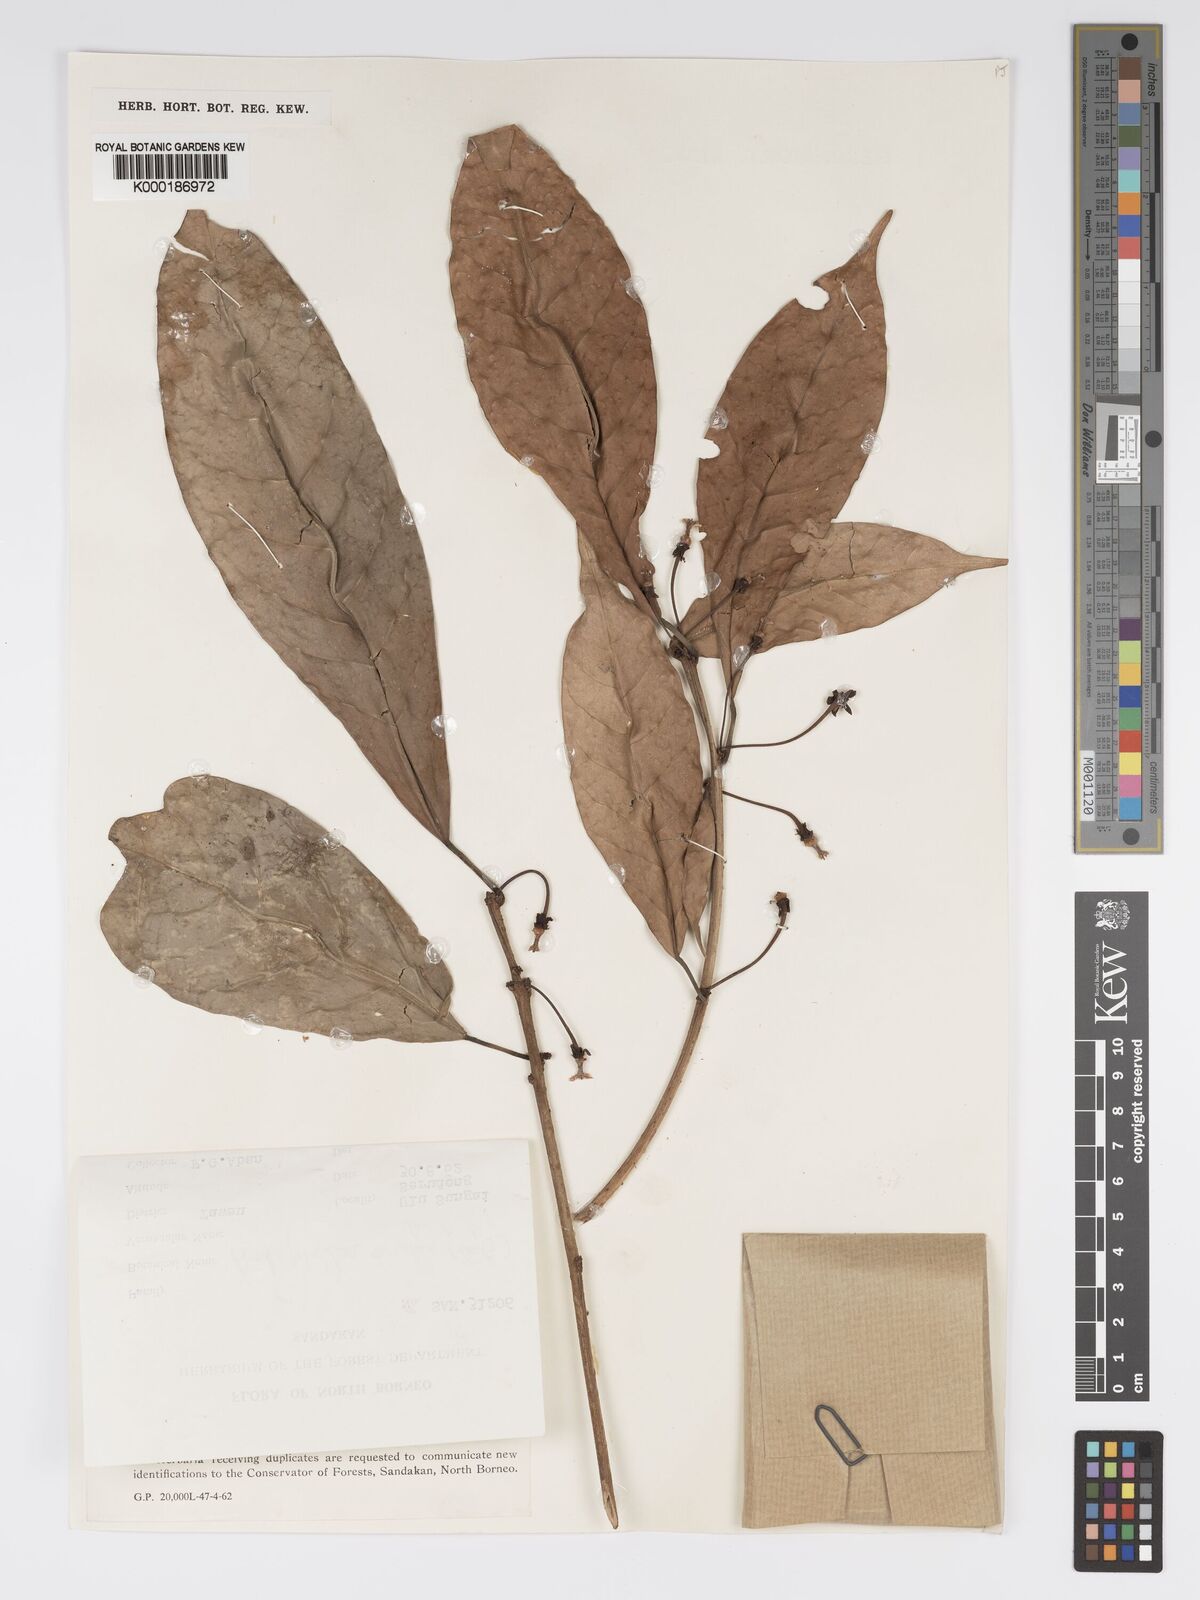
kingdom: Plantae
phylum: Tracheophyta
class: Magnoliopsida
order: Malpighiales
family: Phyllanthaceae
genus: Actephila
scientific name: Actephila
